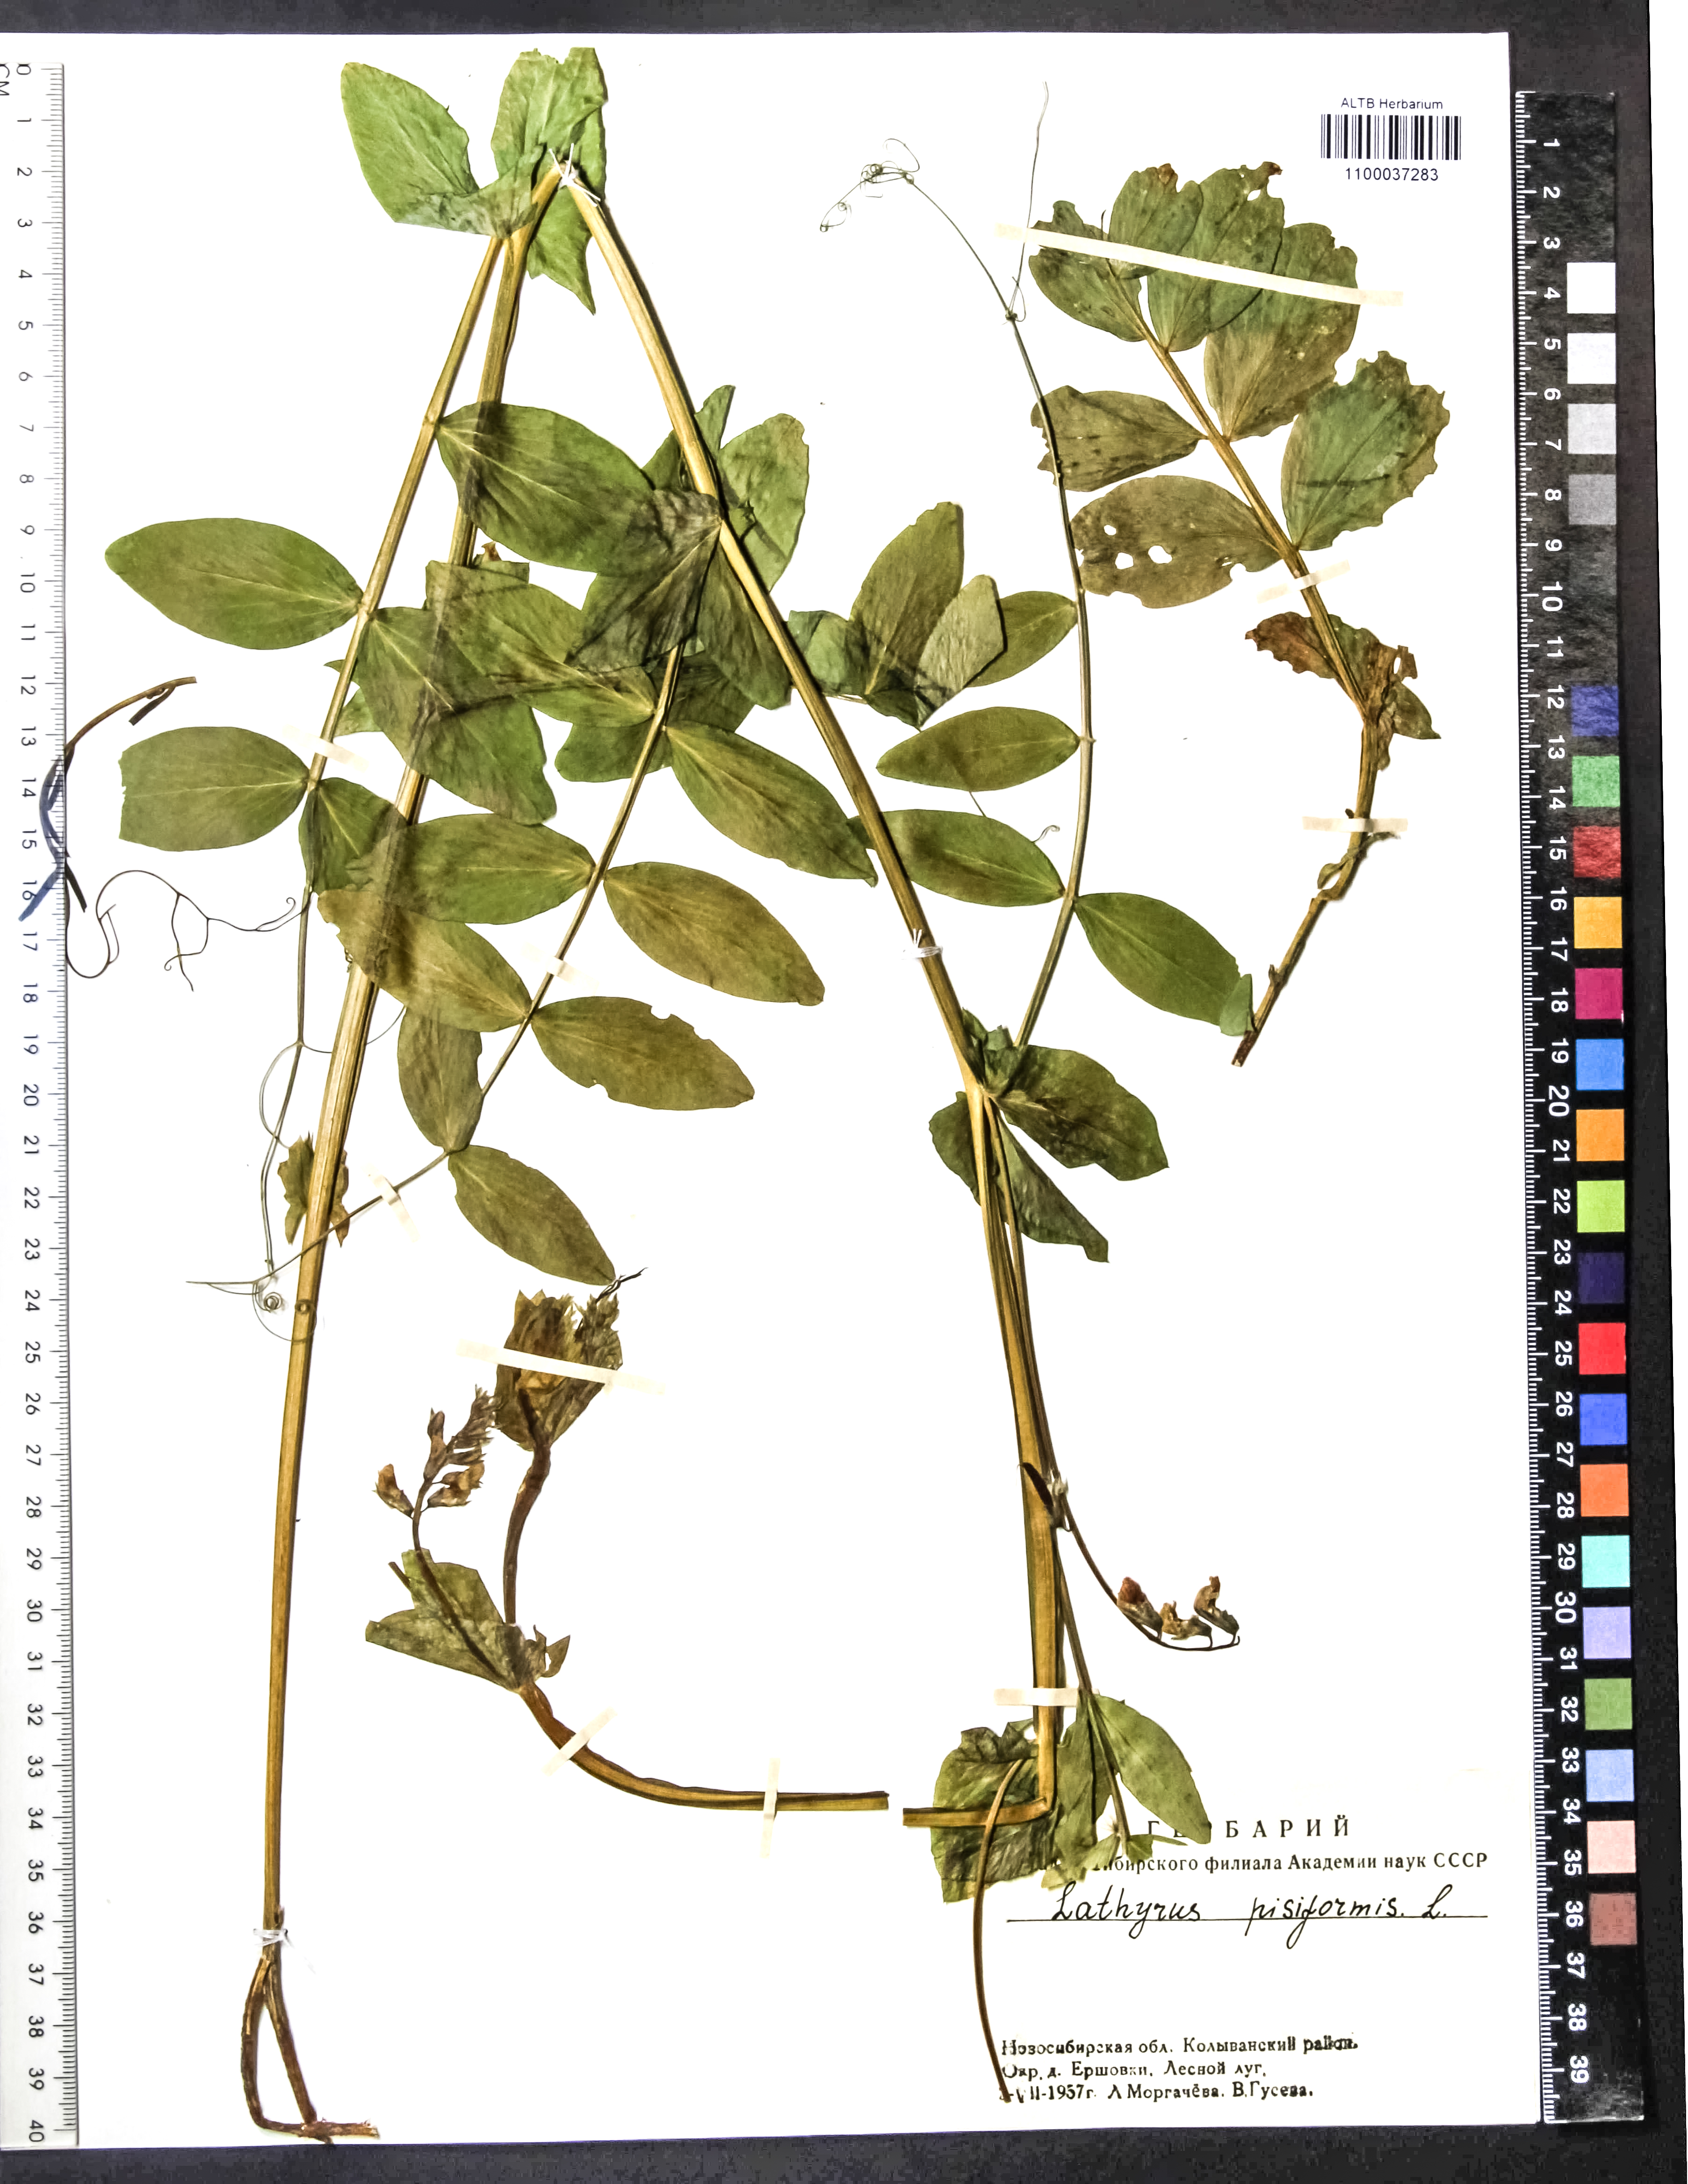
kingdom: Plantae
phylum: Tracheophyta
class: Magnoliopsida
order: Fabales
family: Fabaceae
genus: Lathyrus
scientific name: Lathyrus pisiformis
